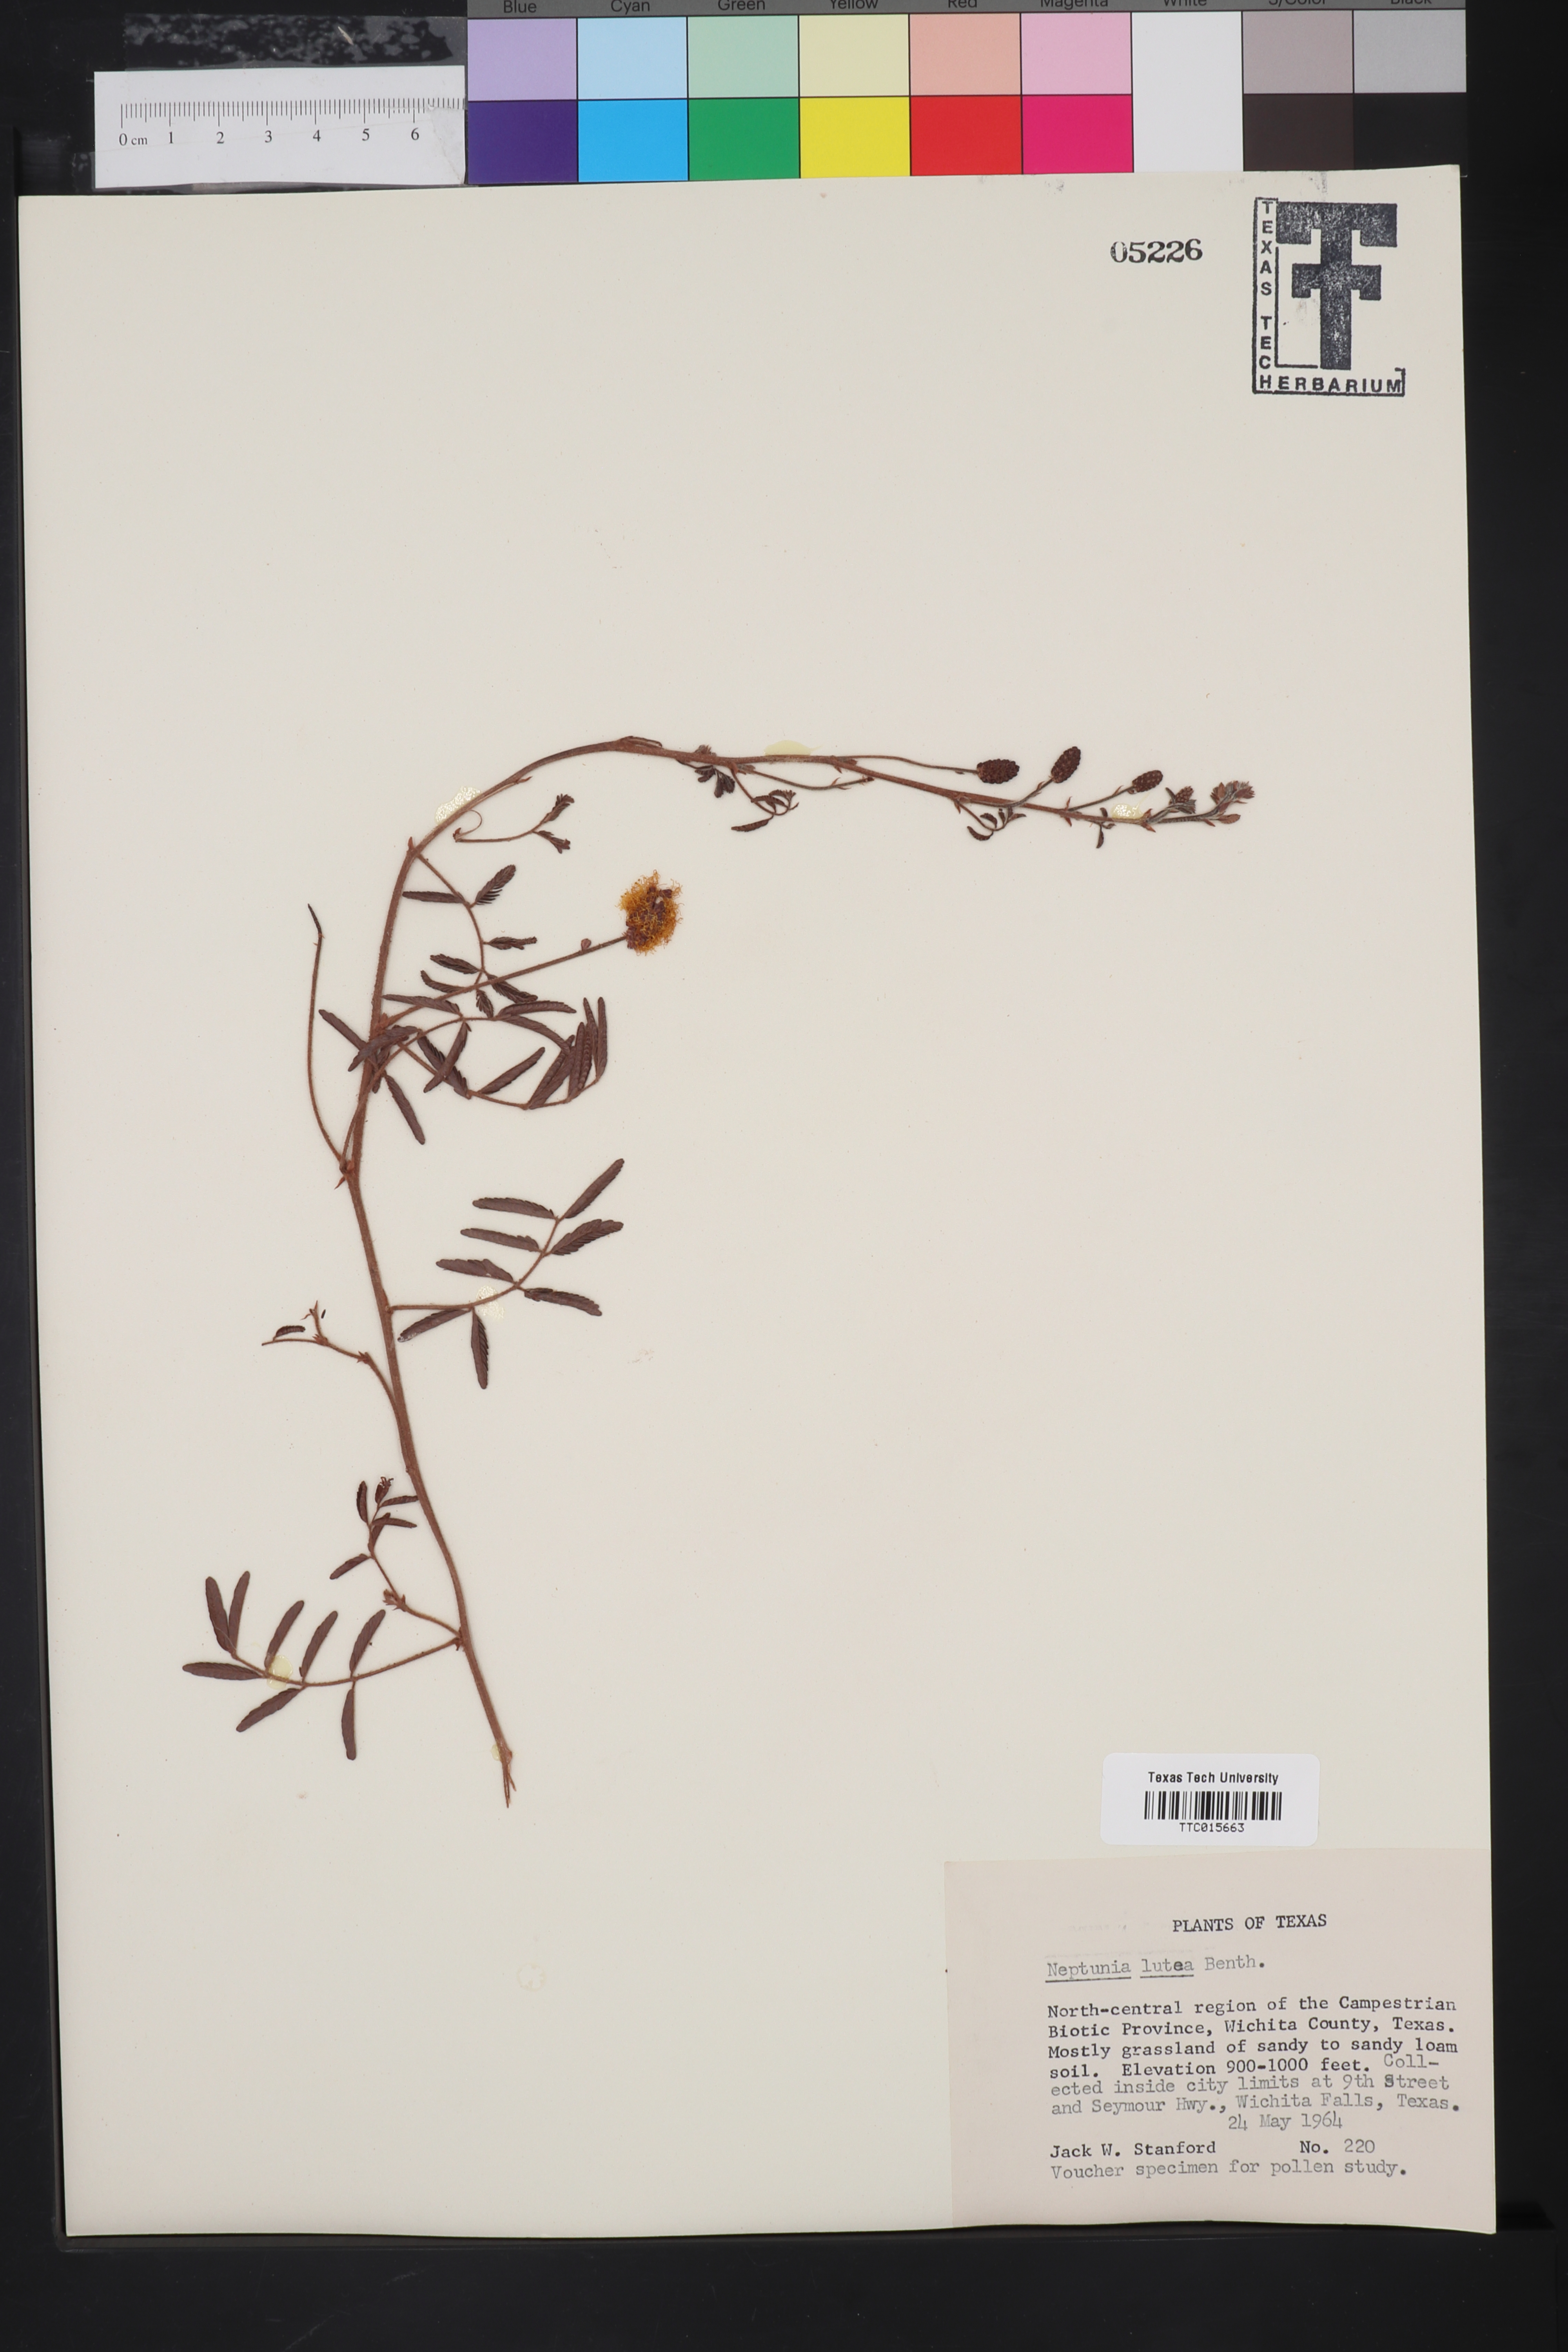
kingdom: Plantae
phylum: Tracheophyta
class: Magnoliopsida
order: Fabales
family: Fabaceae
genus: Neptunia
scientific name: Neptunia lutea
